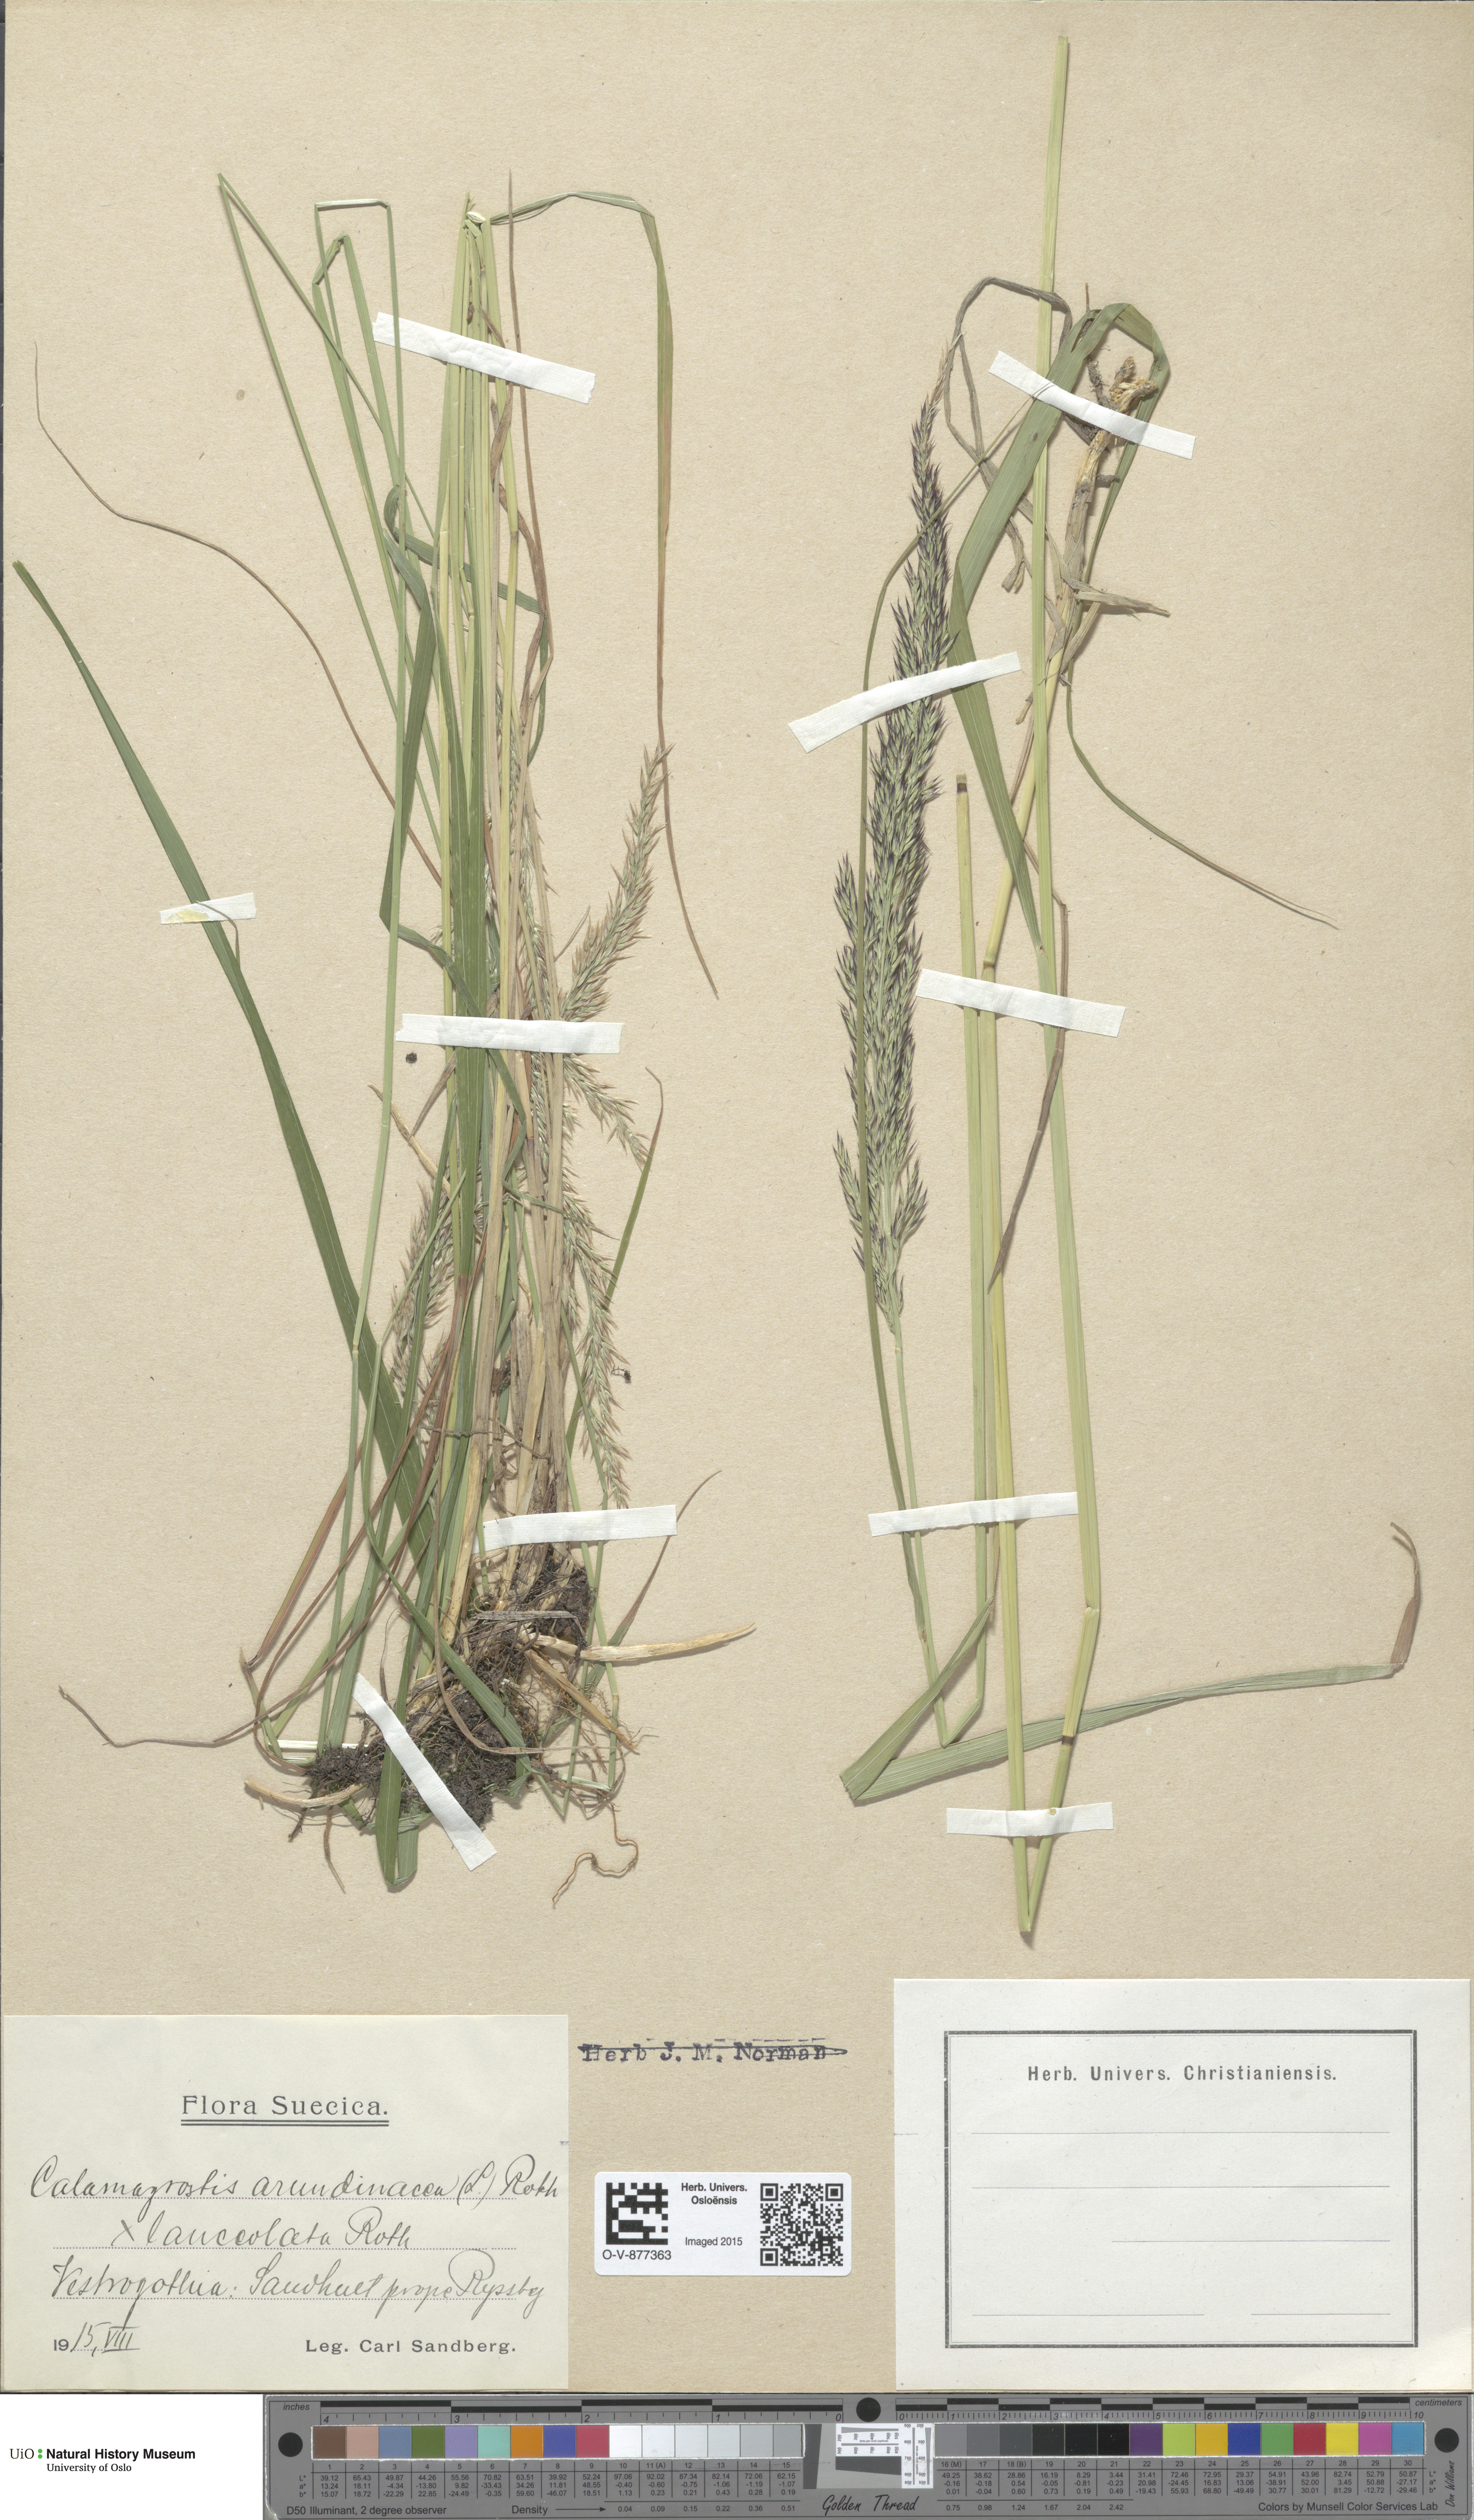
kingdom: Plantae
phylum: Tracheophyta
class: Liliopsida
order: Poales
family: Poaceae
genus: Calamagrostis
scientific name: Calamagrostis
